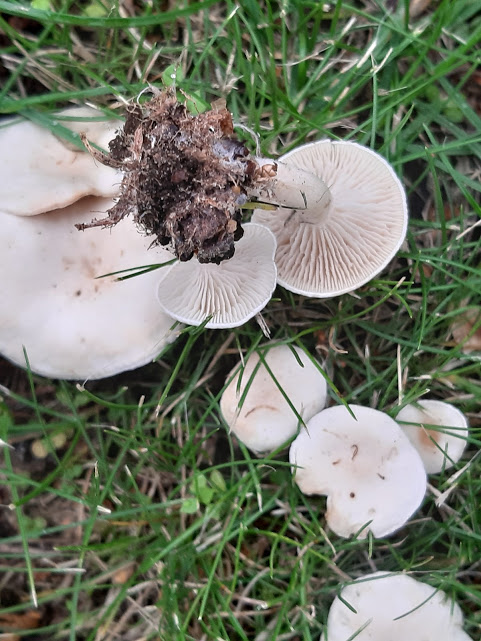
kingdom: Fungi
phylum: Basidiomycota
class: Agaricomycetes
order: Agaricales
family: Tricholomataceae
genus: Clitocybe
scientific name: Clitocybe
